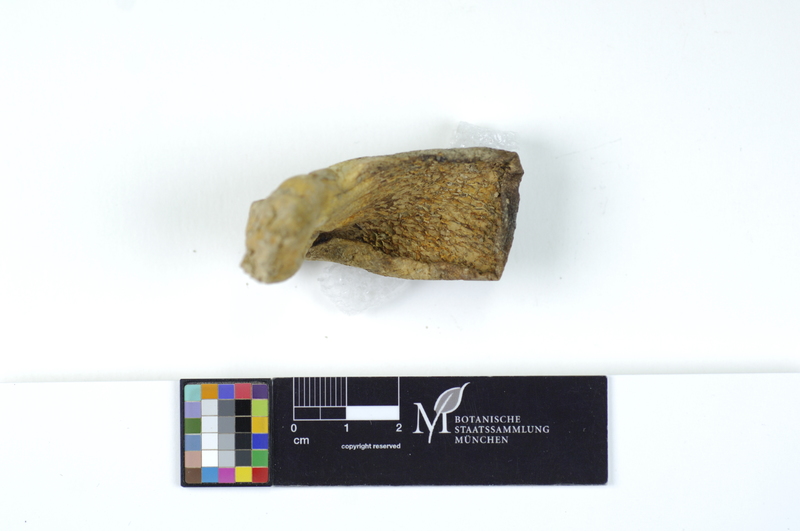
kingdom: Fungi
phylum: Basidiomycota
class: Agaricomycetes
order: Russulales
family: Albatrellaceae
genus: Scutiger
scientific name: Scutiger pes-caprae
